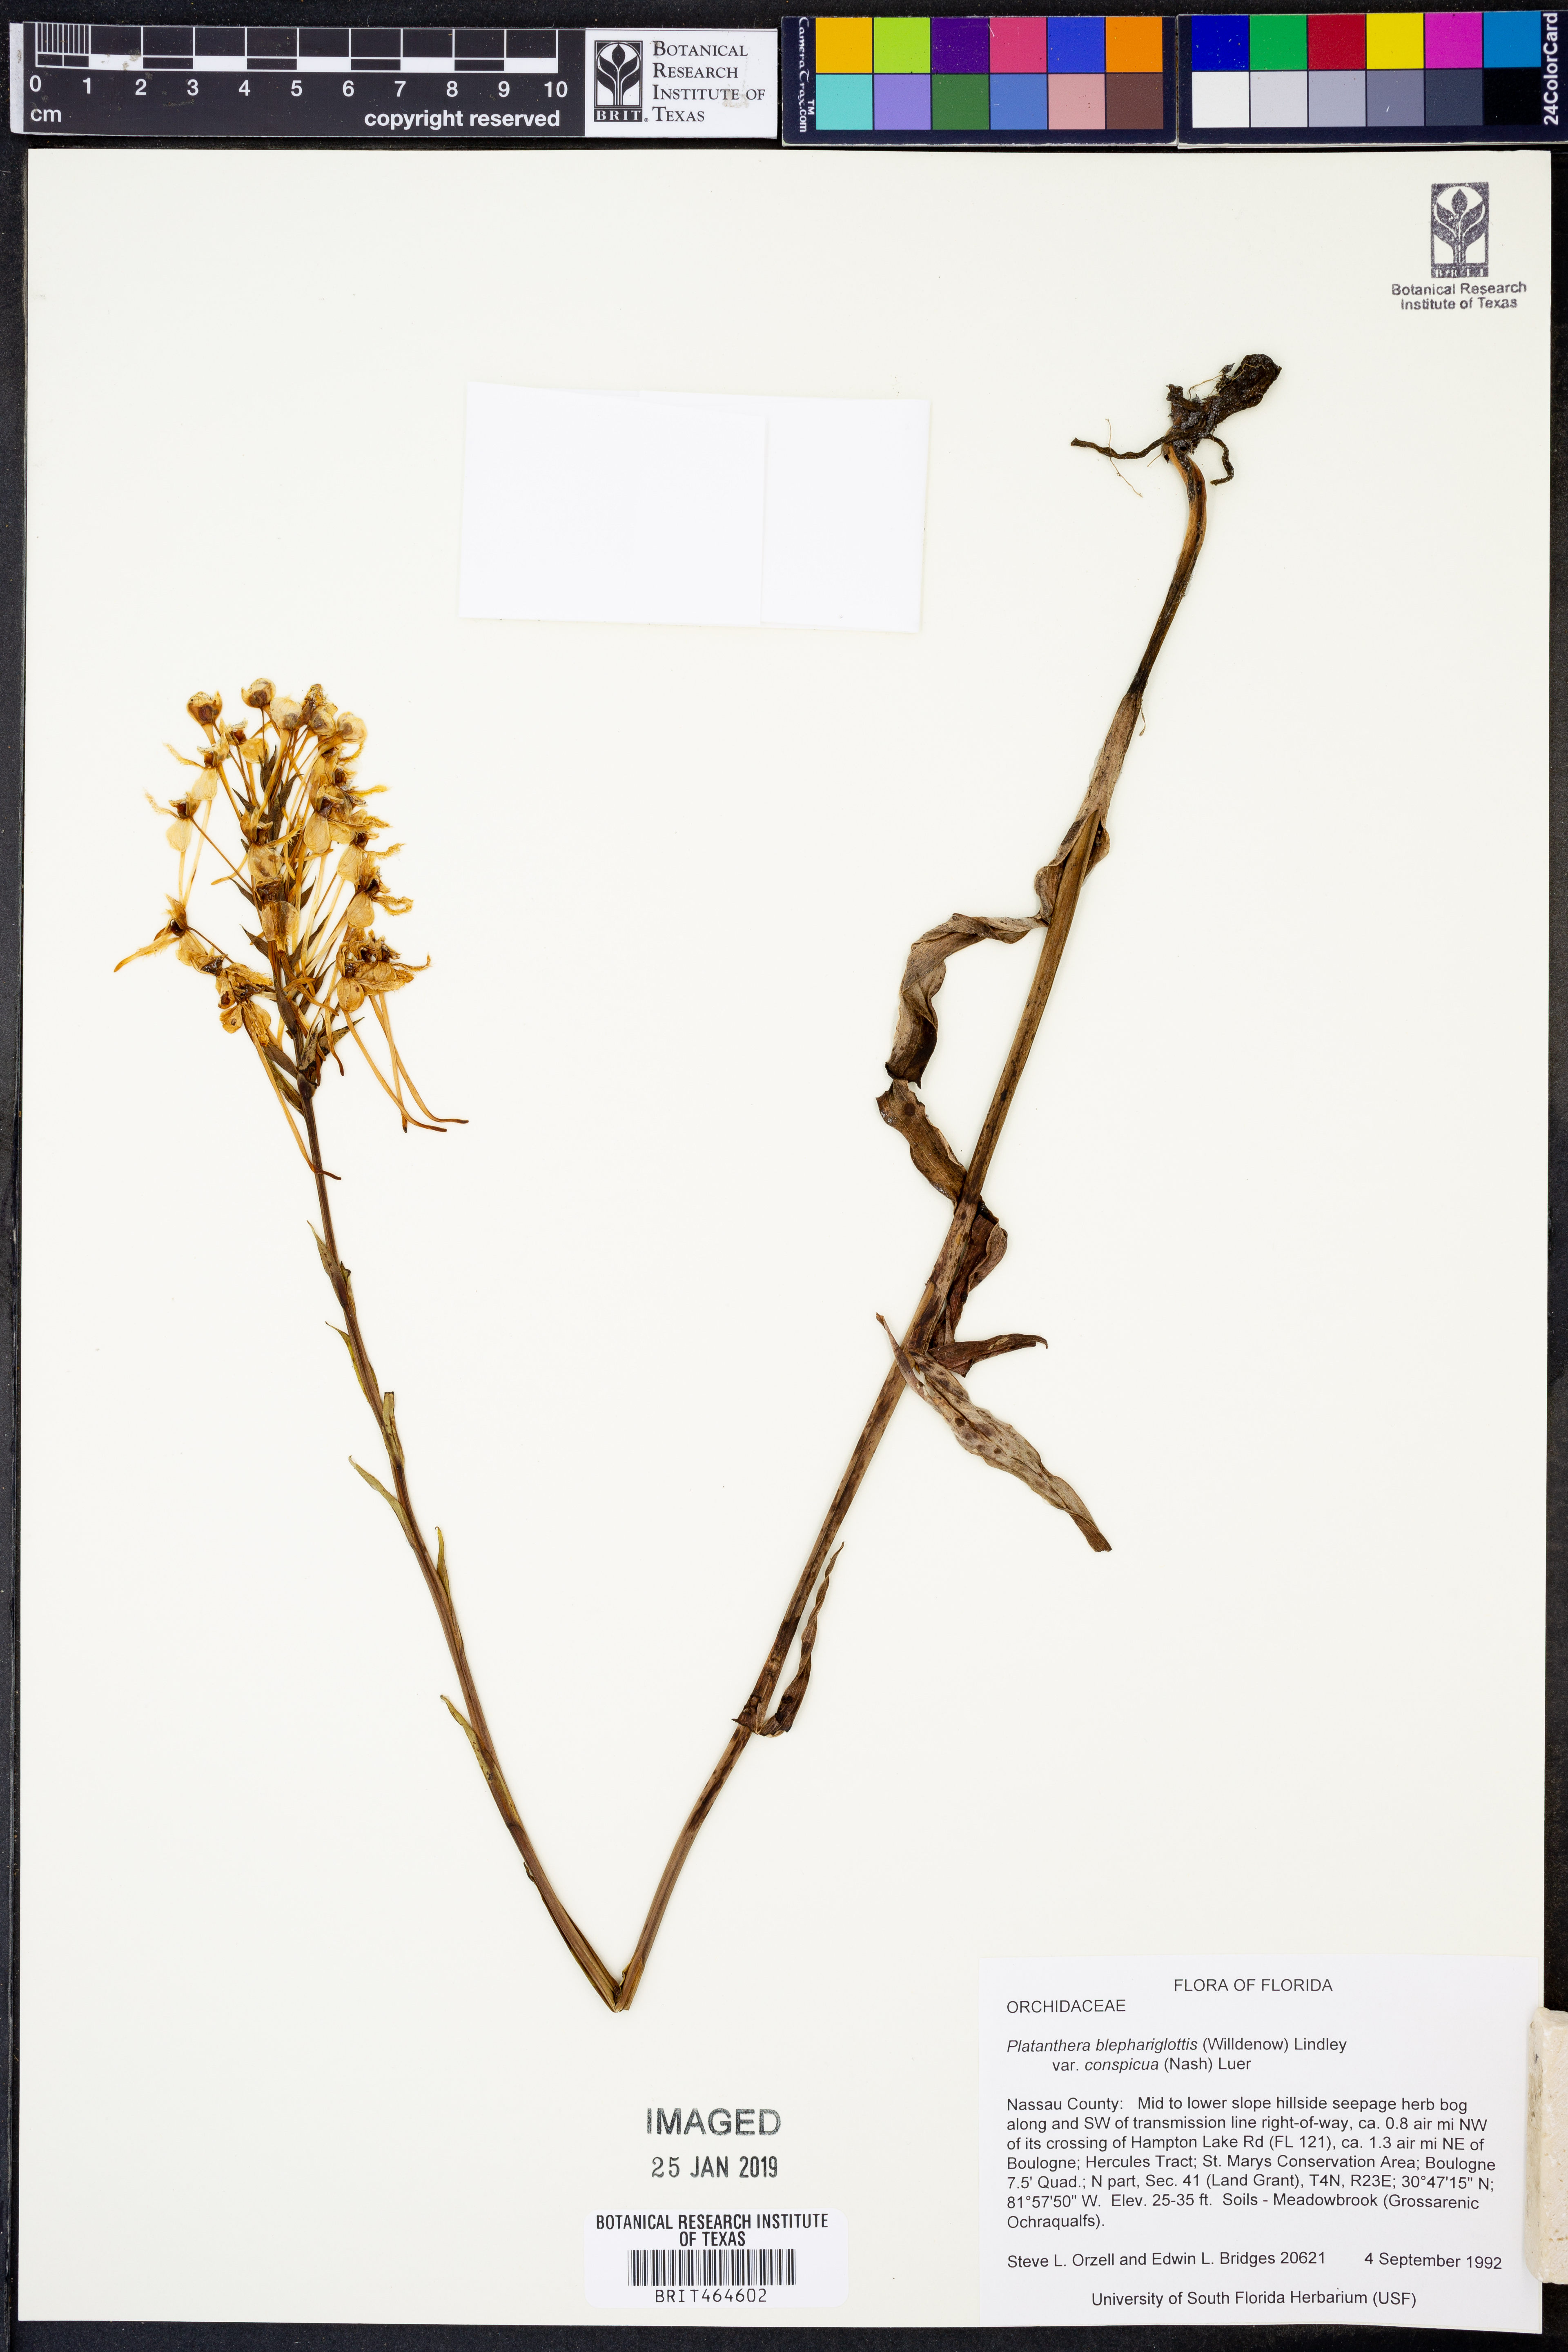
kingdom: Plantae
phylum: Tracheophyta
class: Liliopsida
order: Asparagales
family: Orchidaceae
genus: Platanthera
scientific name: Platanthera blephariglottis
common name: White fringed orchid
